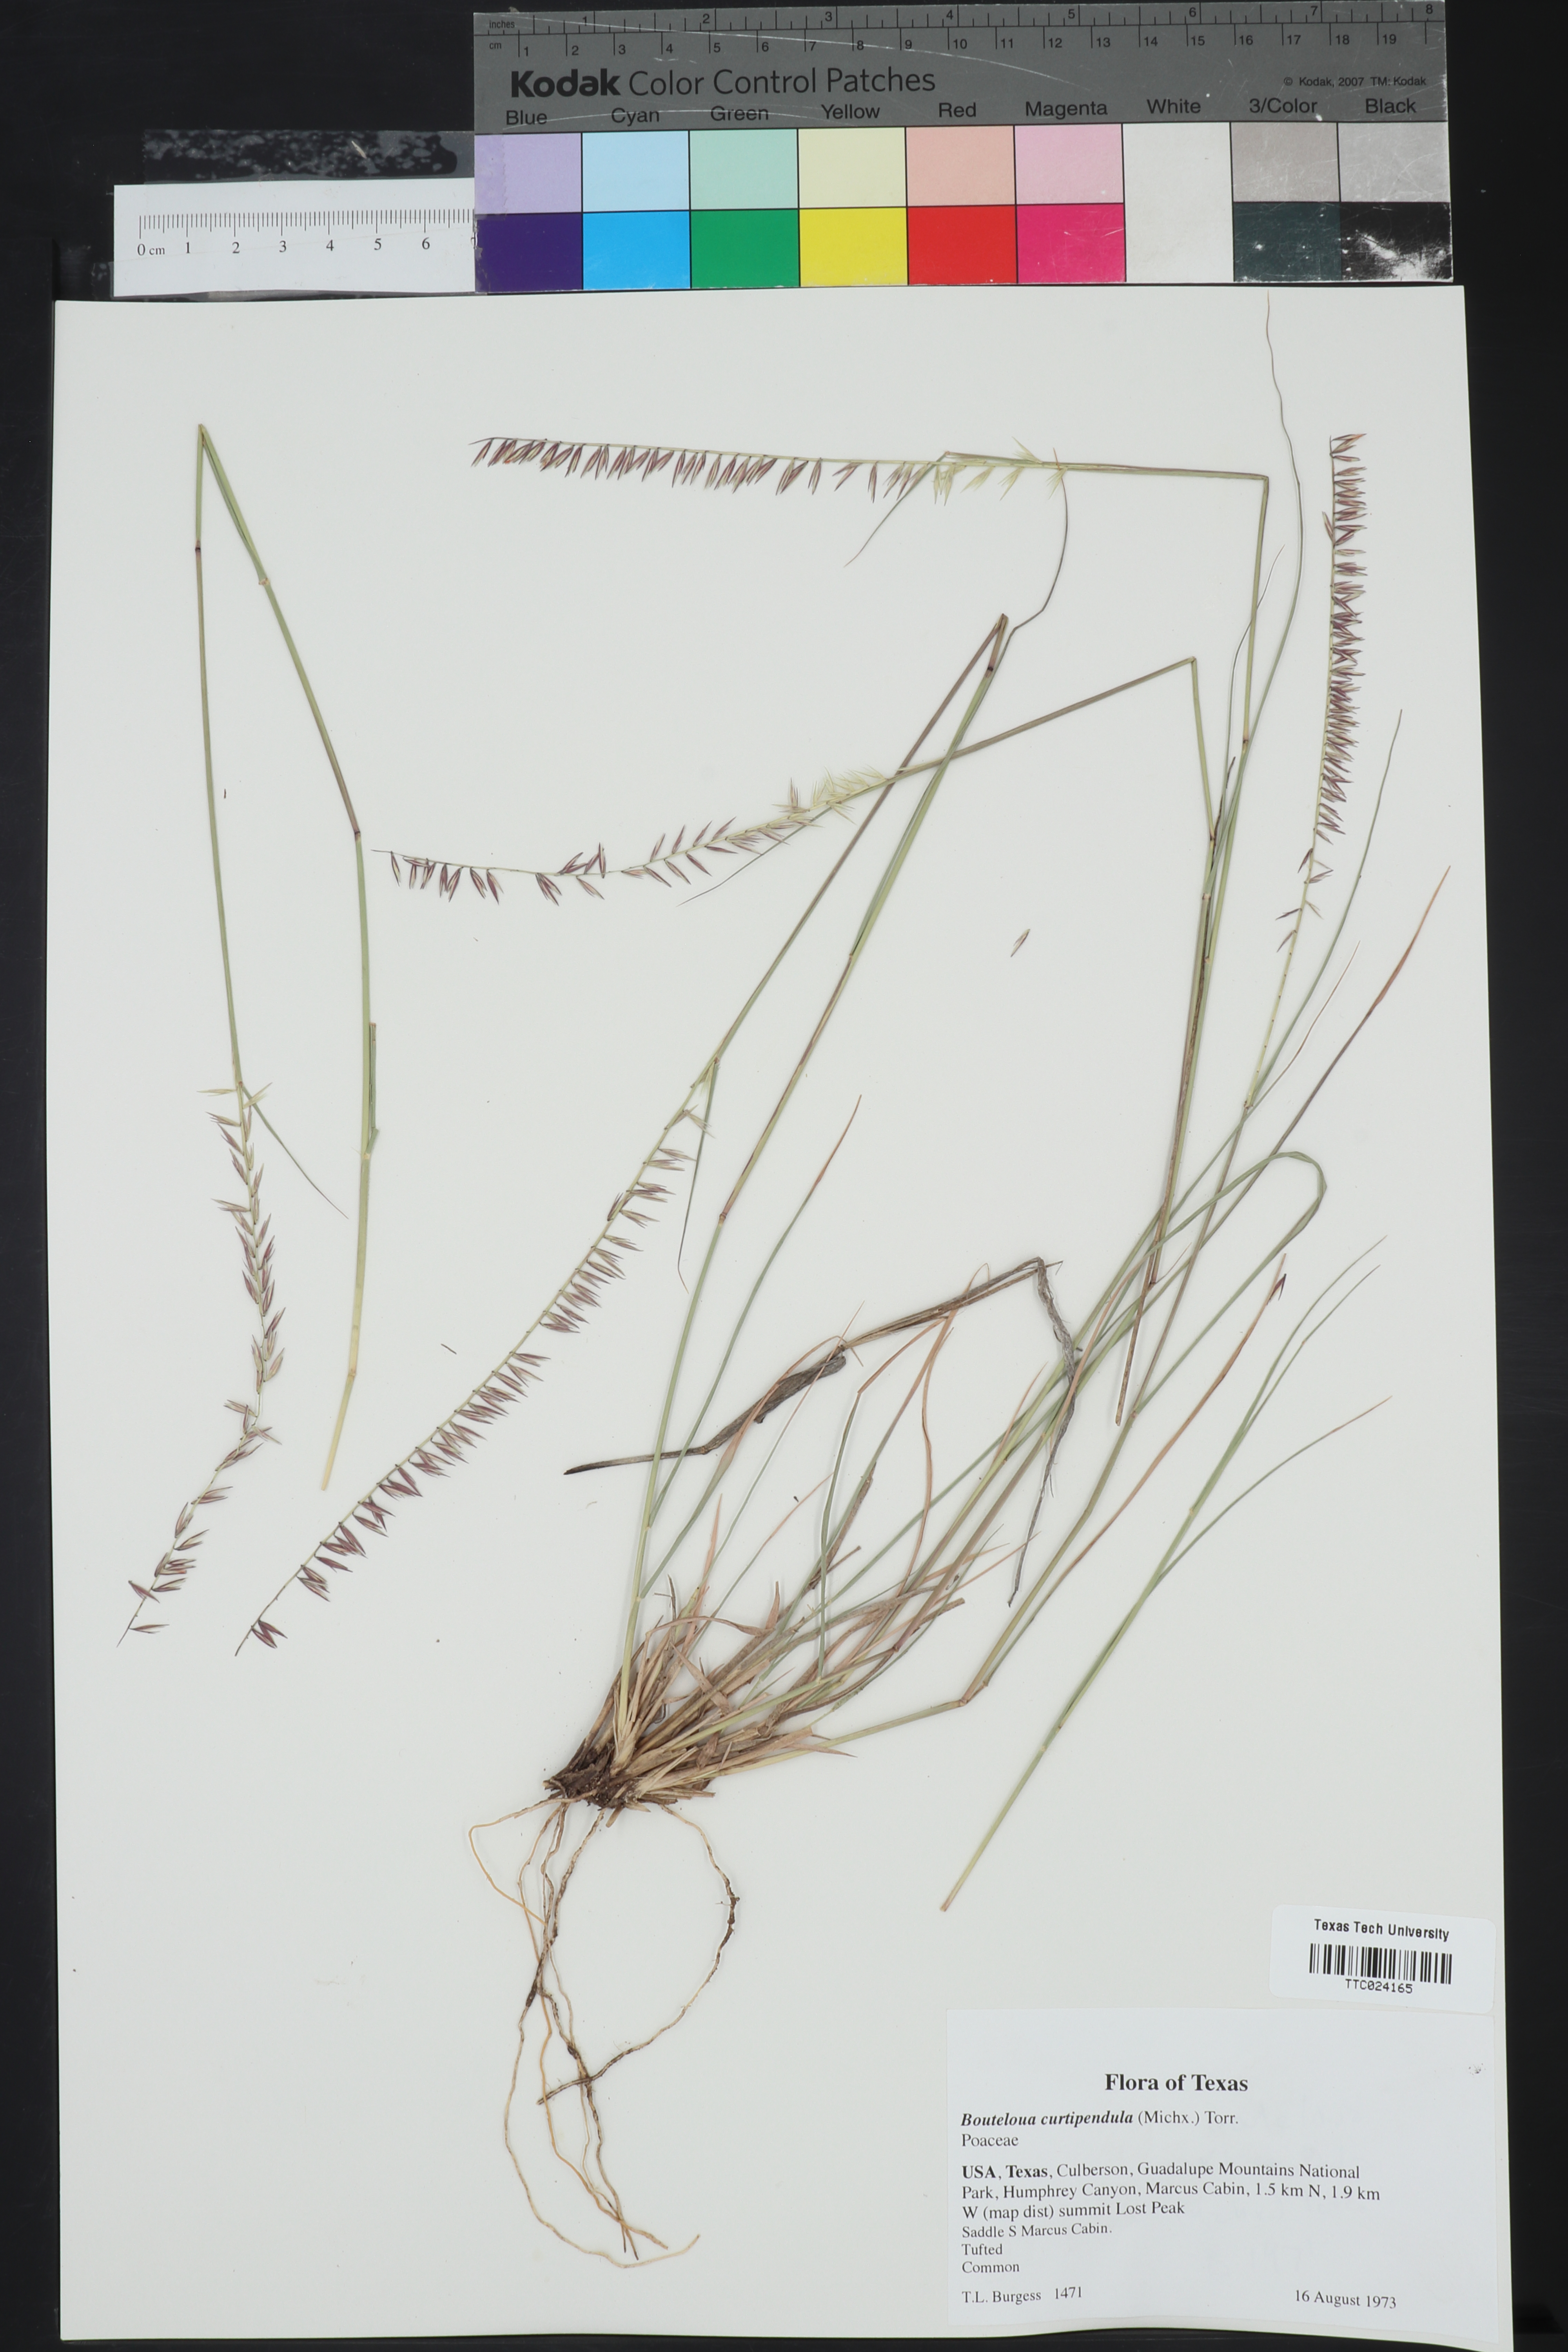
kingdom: Plantae
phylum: Tracheophyta
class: Liliopsida
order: Poales
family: Poaceae
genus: Bouteloua
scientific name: Bouteloua curtipendula
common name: Side-oats grama
